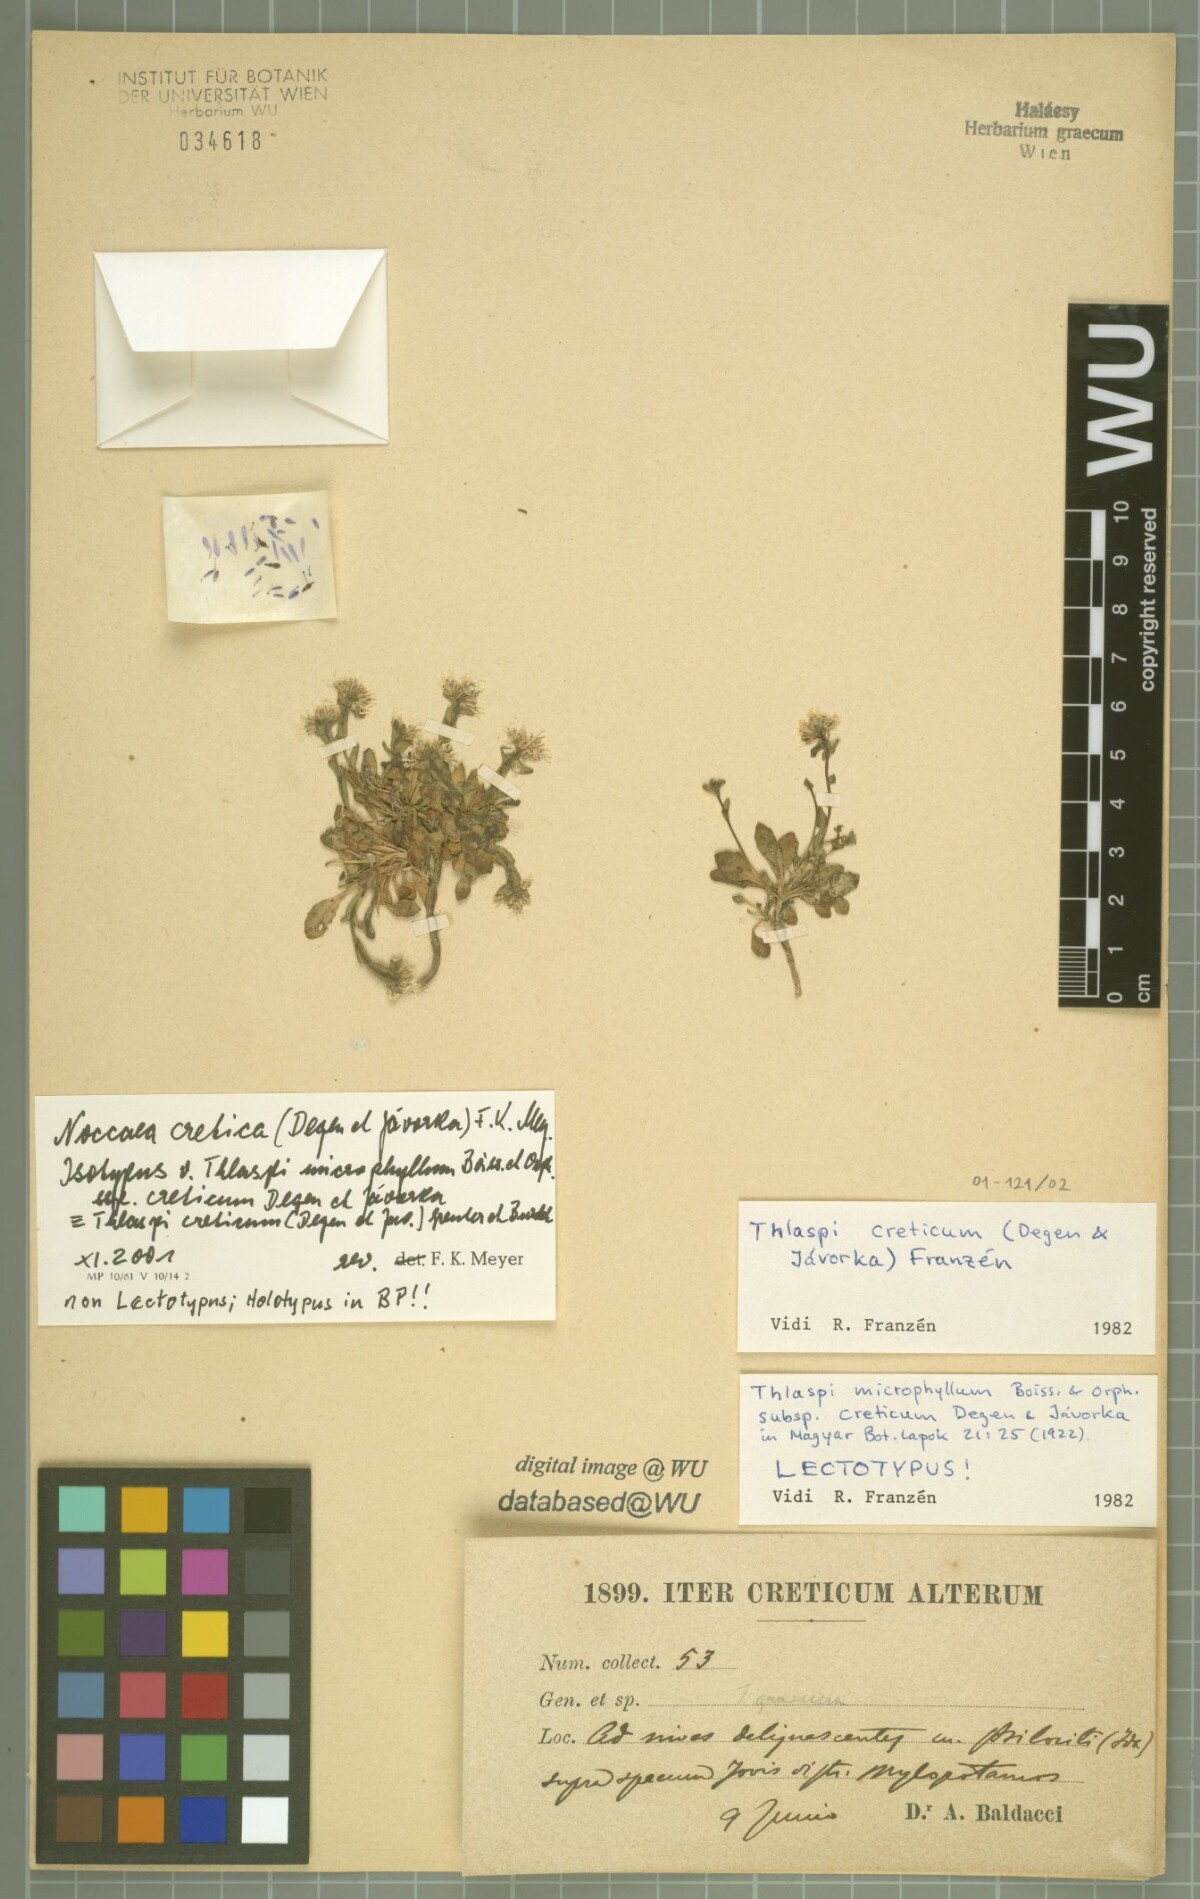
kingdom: Plantae
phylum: Tracheophyta
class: Magnoliopsida
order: Brassicales
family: Brassicaceae
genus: Noccaea
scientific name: Noccaea cretica
